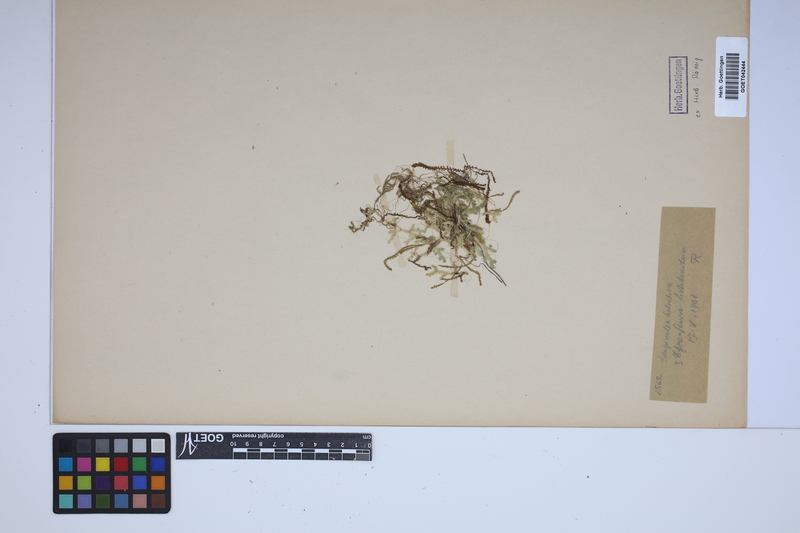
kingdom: Plantae
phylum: Tracheophyta
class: Lycopodiopsida
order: Selaginellales
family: Selaginellaceae
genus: Selaginella
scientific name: Selaginella helvetica
